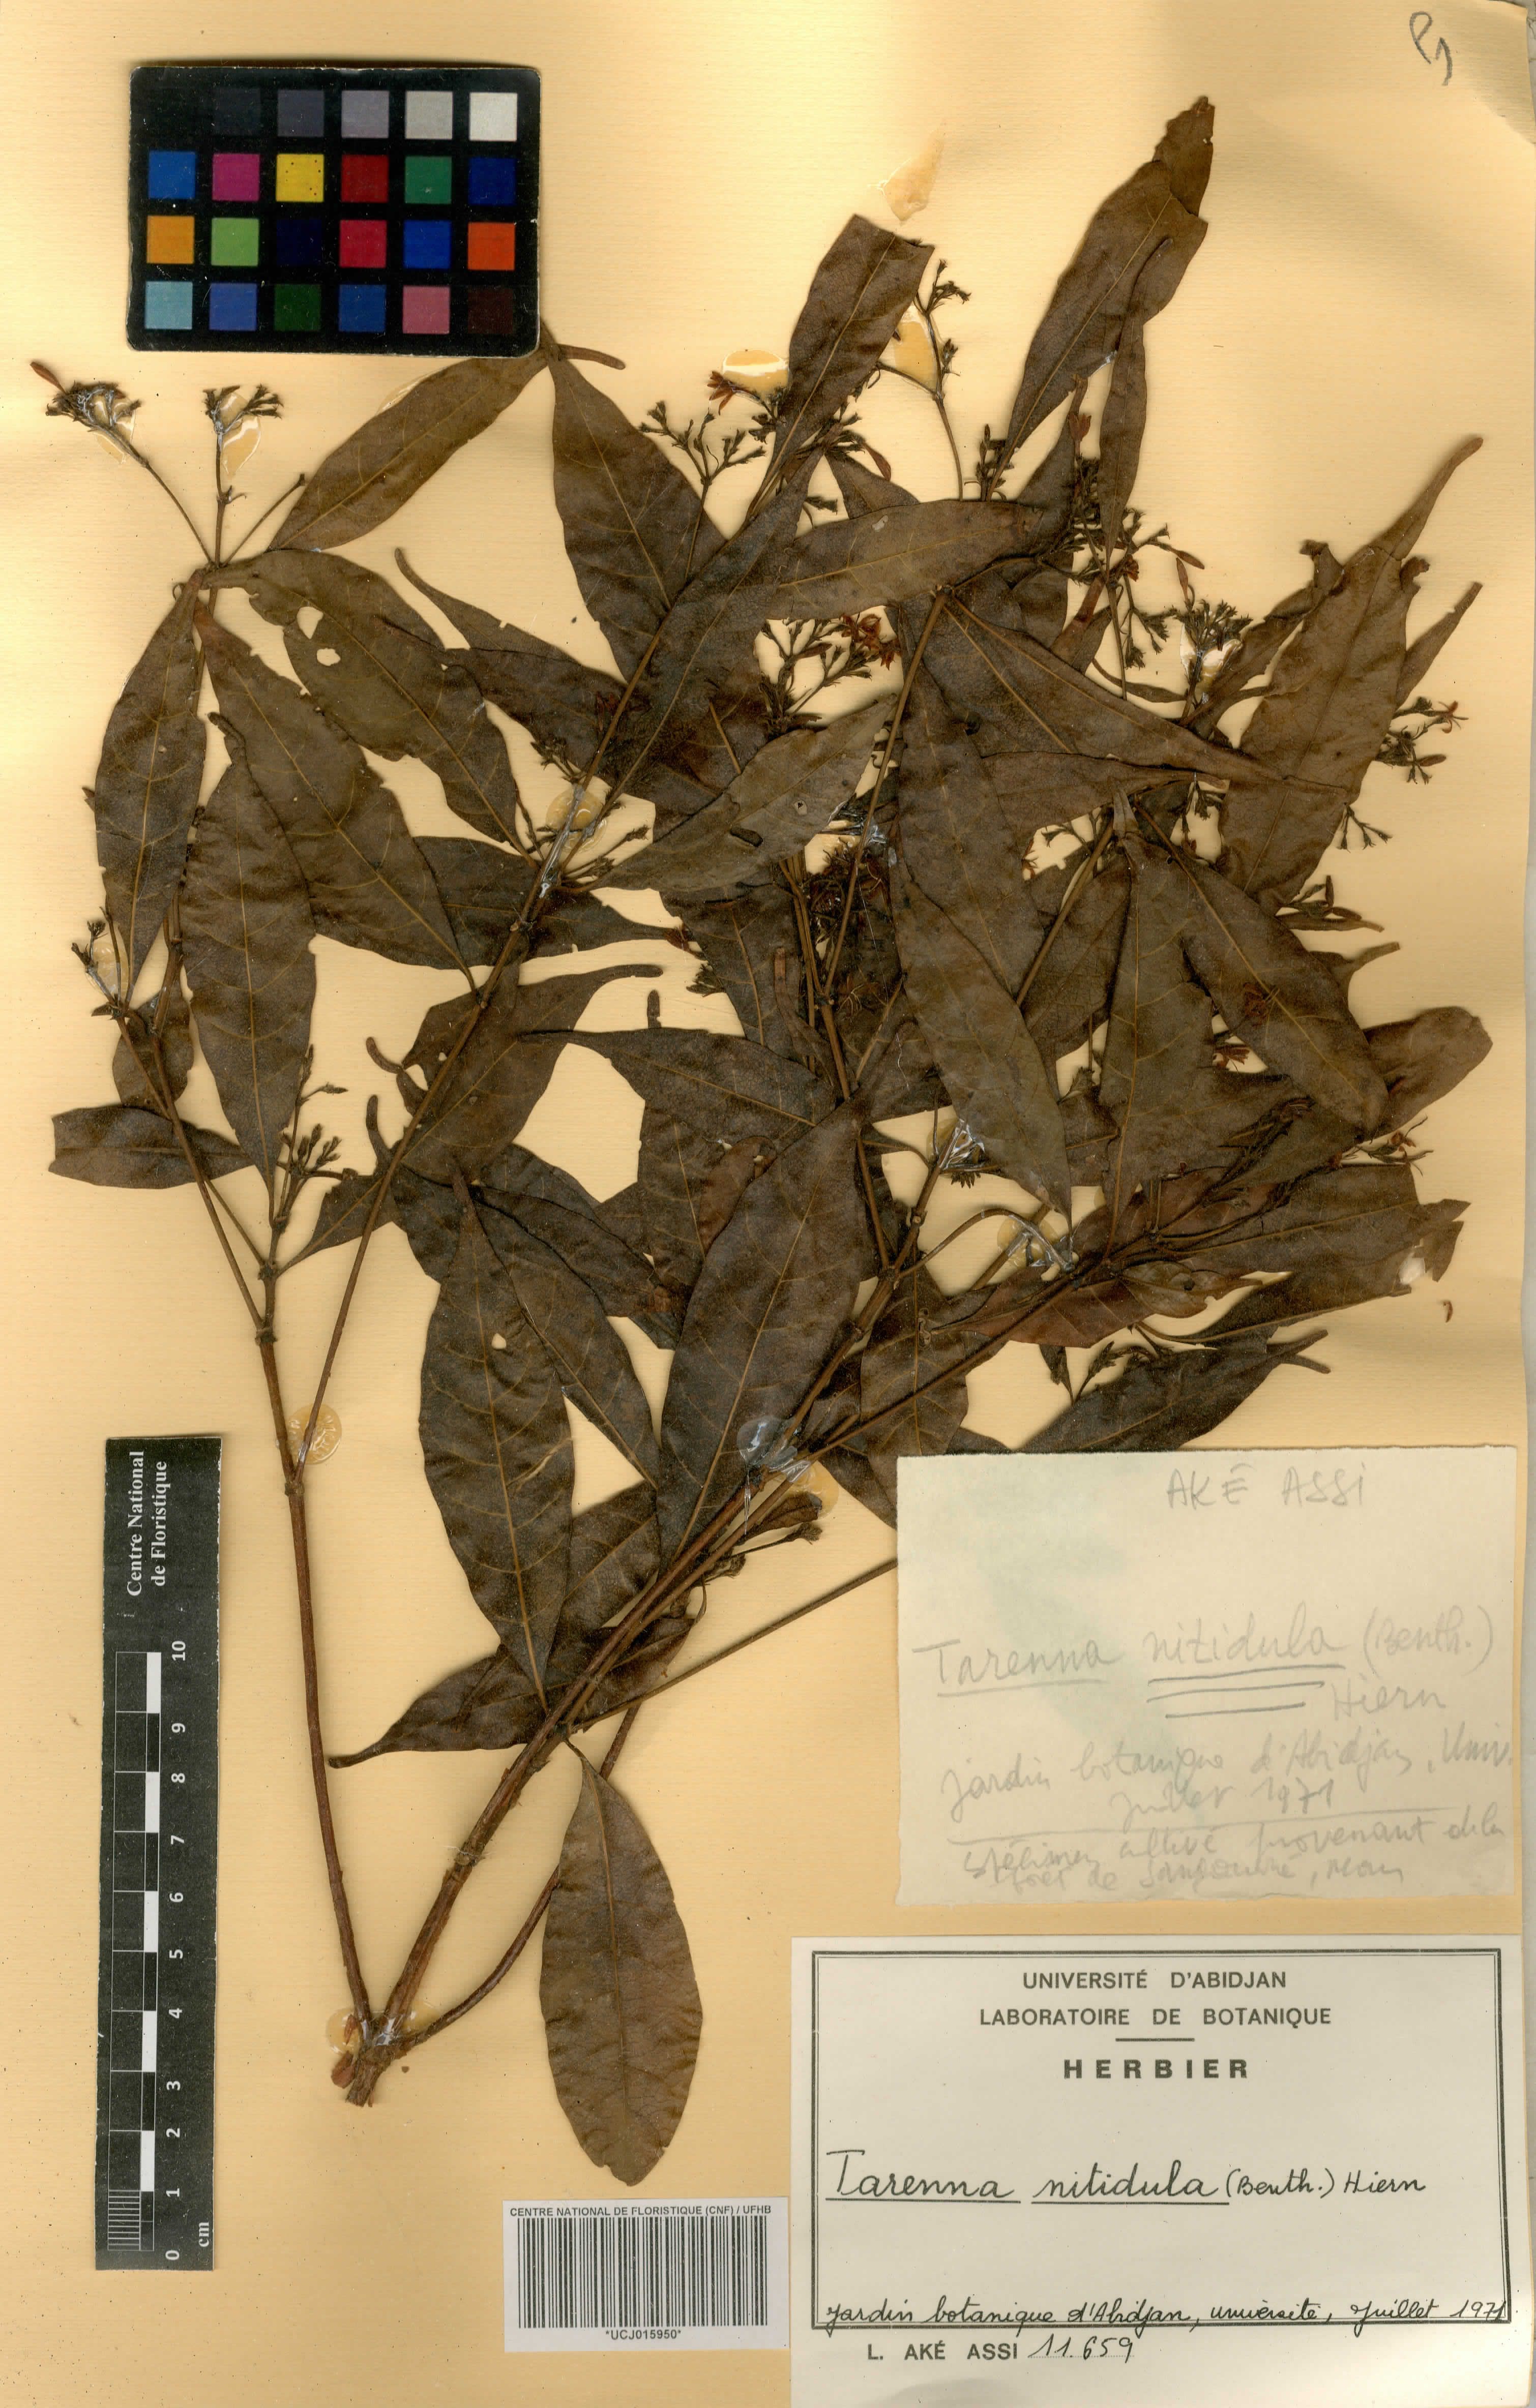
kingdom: Plantae
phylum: Tracheophyta
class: Magnoliopsida
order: Gentianales
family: Rubiaceae
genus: Tarenna
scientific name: Tarenna nitidula
